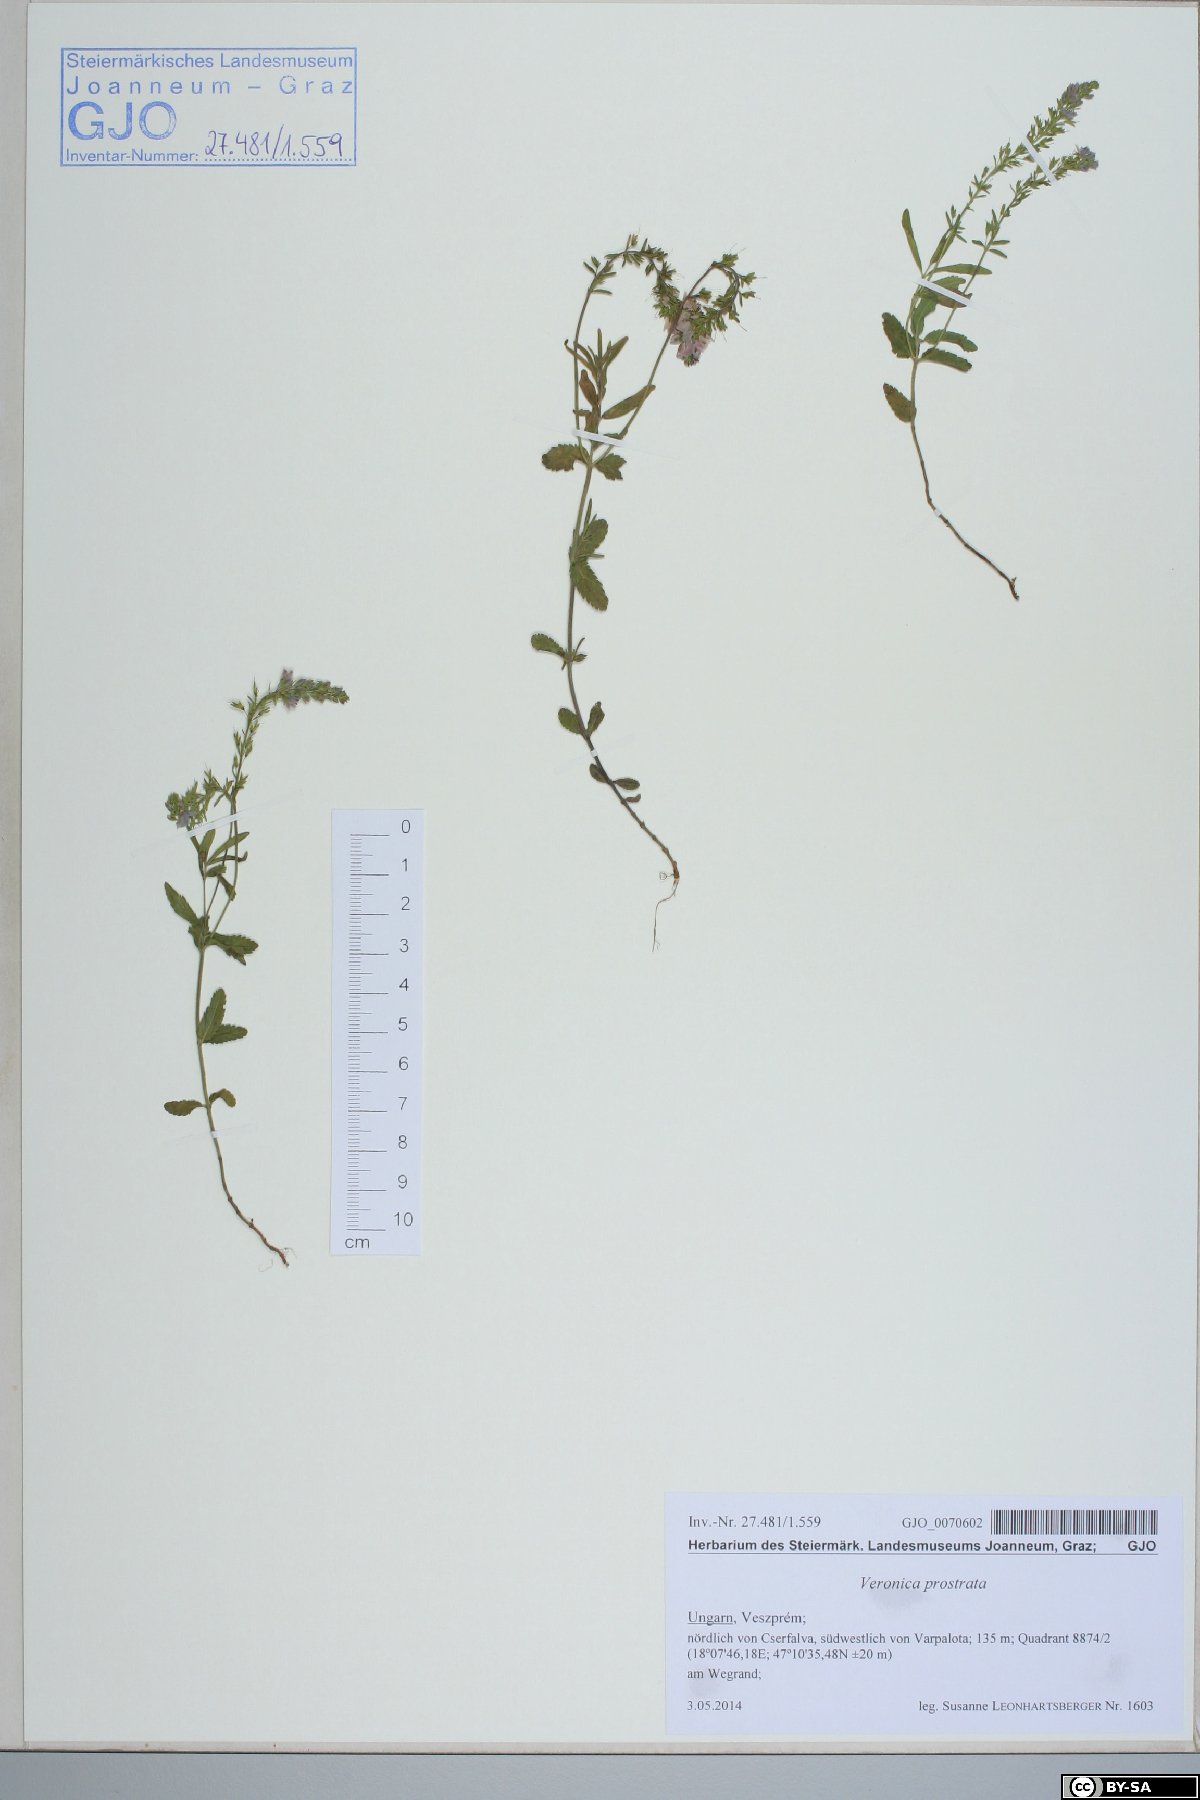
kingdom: Plantae
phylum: Tracheophyta
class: Magnoliopsida
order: Lamiales
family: Plantaginaceae
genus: Veronica
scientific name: Veronica prostrata
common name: Prostrate speedwell
